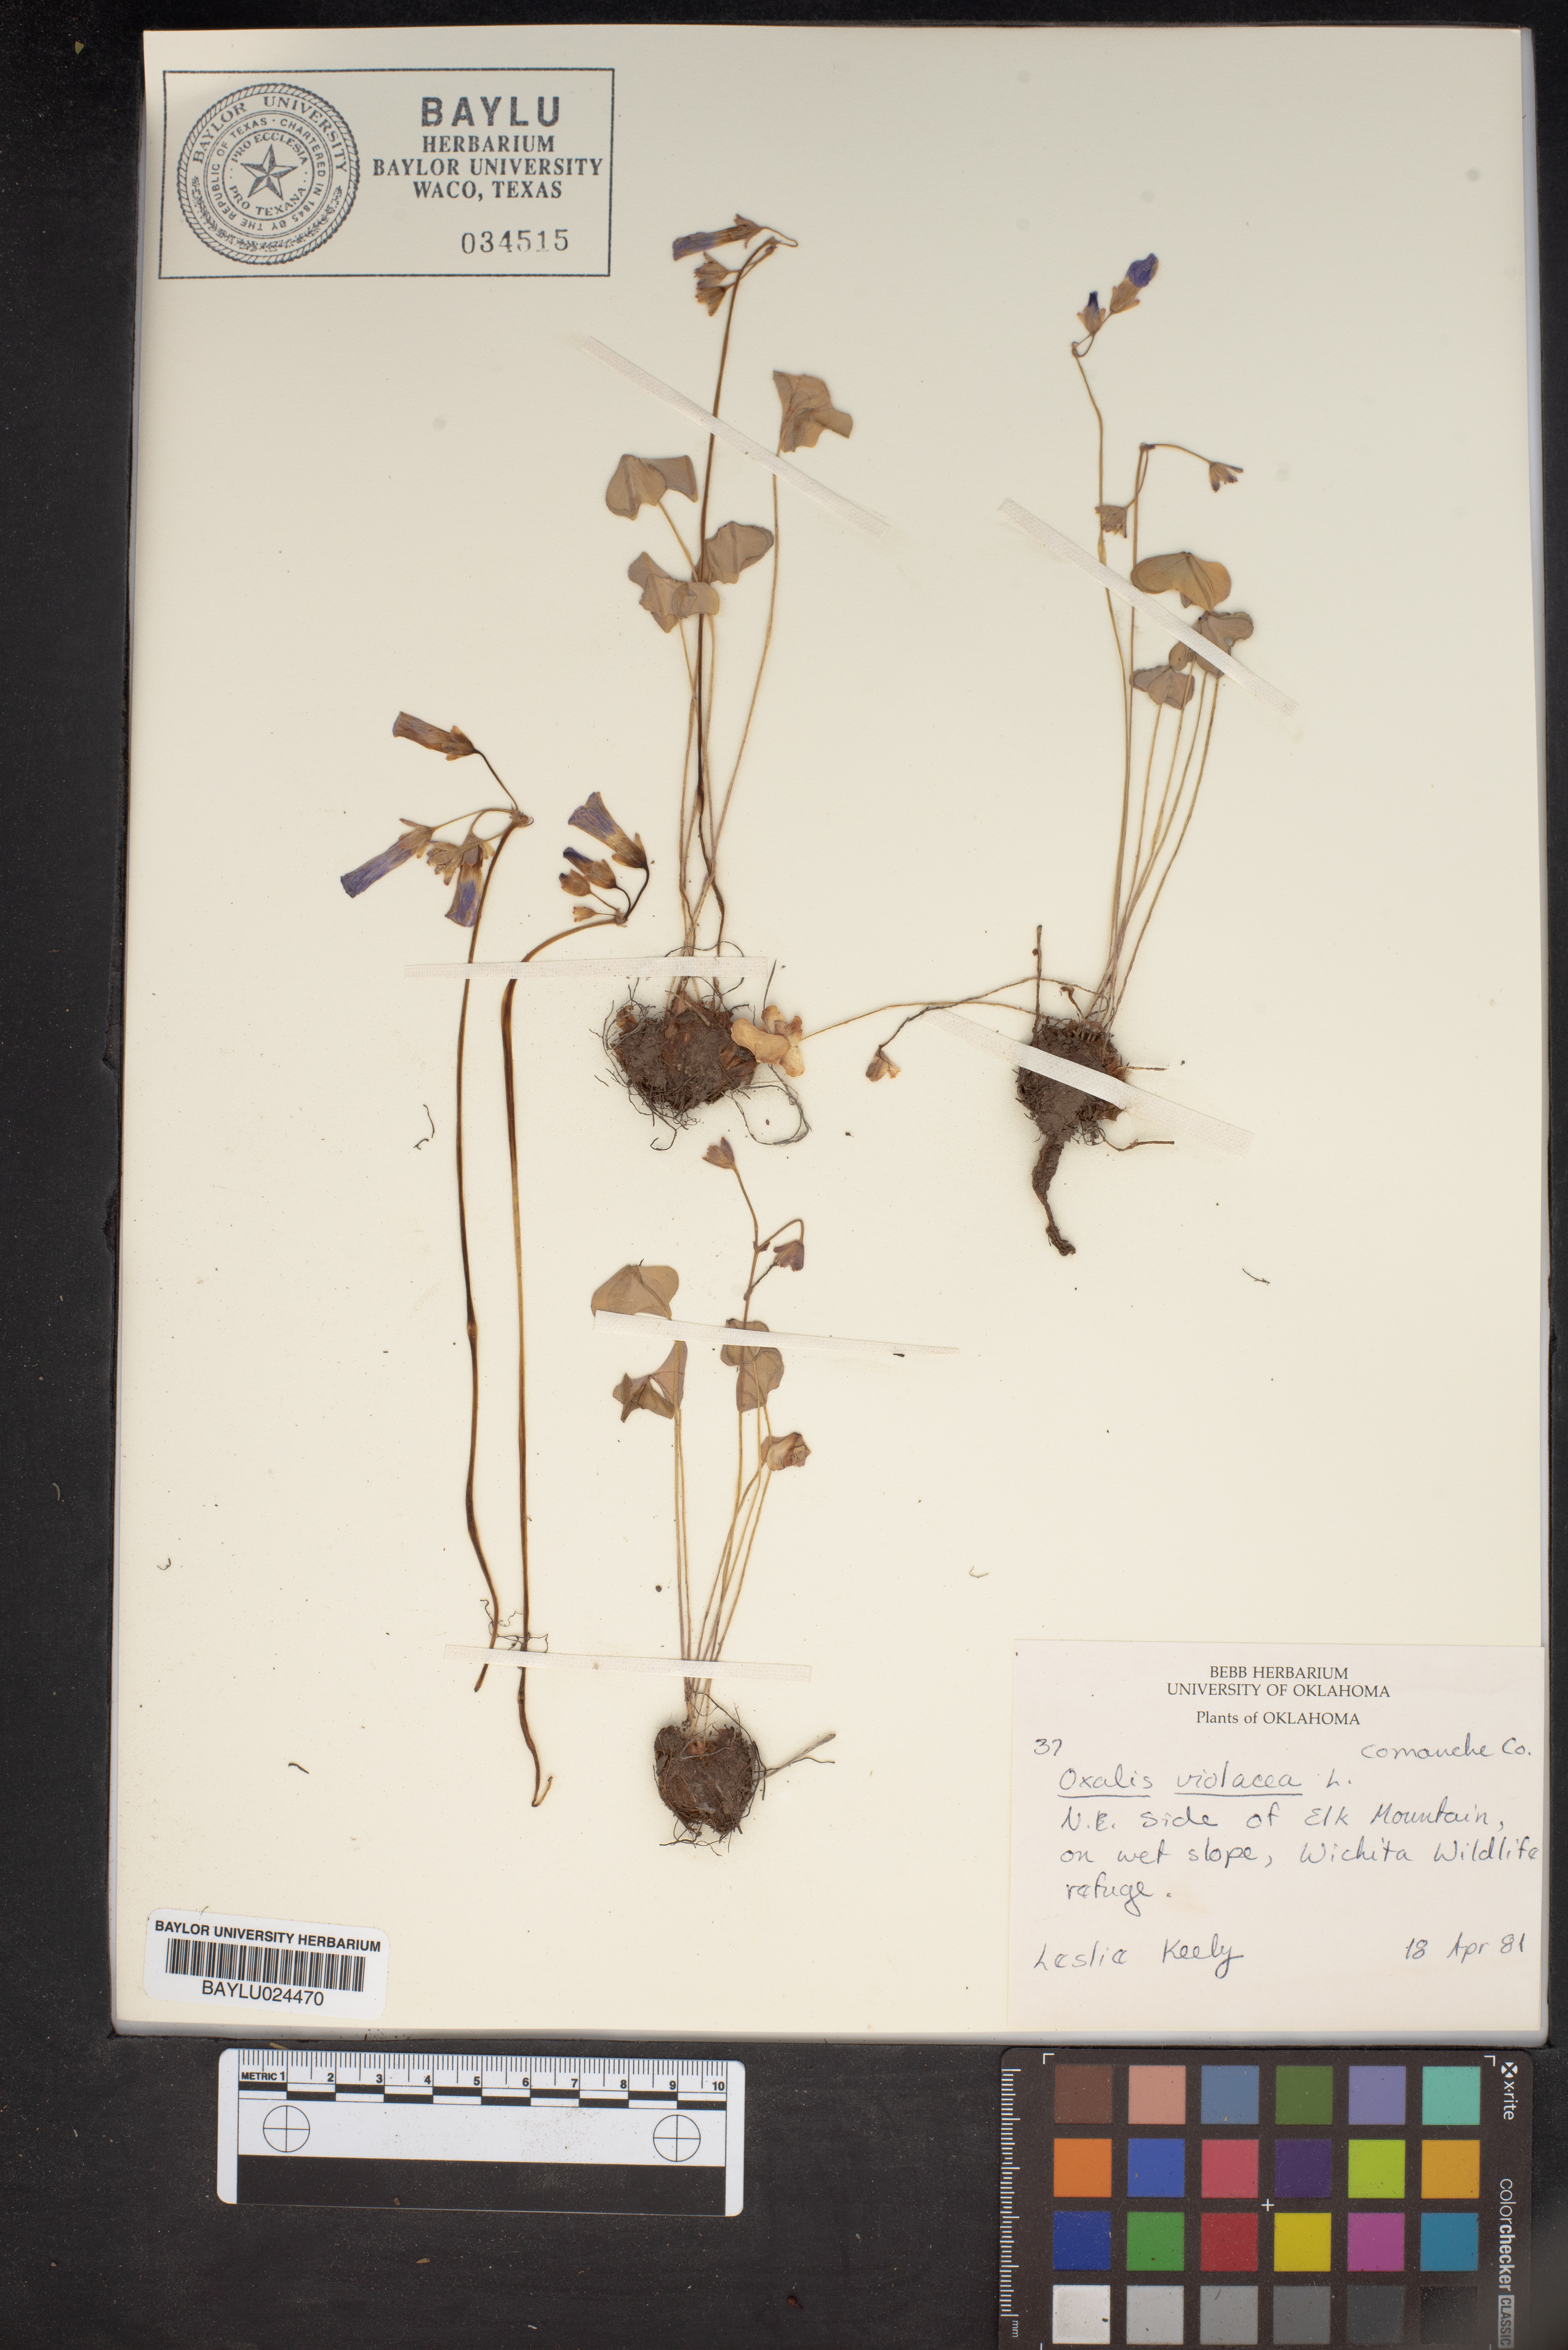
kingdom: Plantae
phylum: Tracheophyta
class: Magnoliopsida
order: Oxalidales
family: Oxalidaceae
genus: Oxalis
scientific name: Oxalis violacea
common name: Violet wood-sorrel
